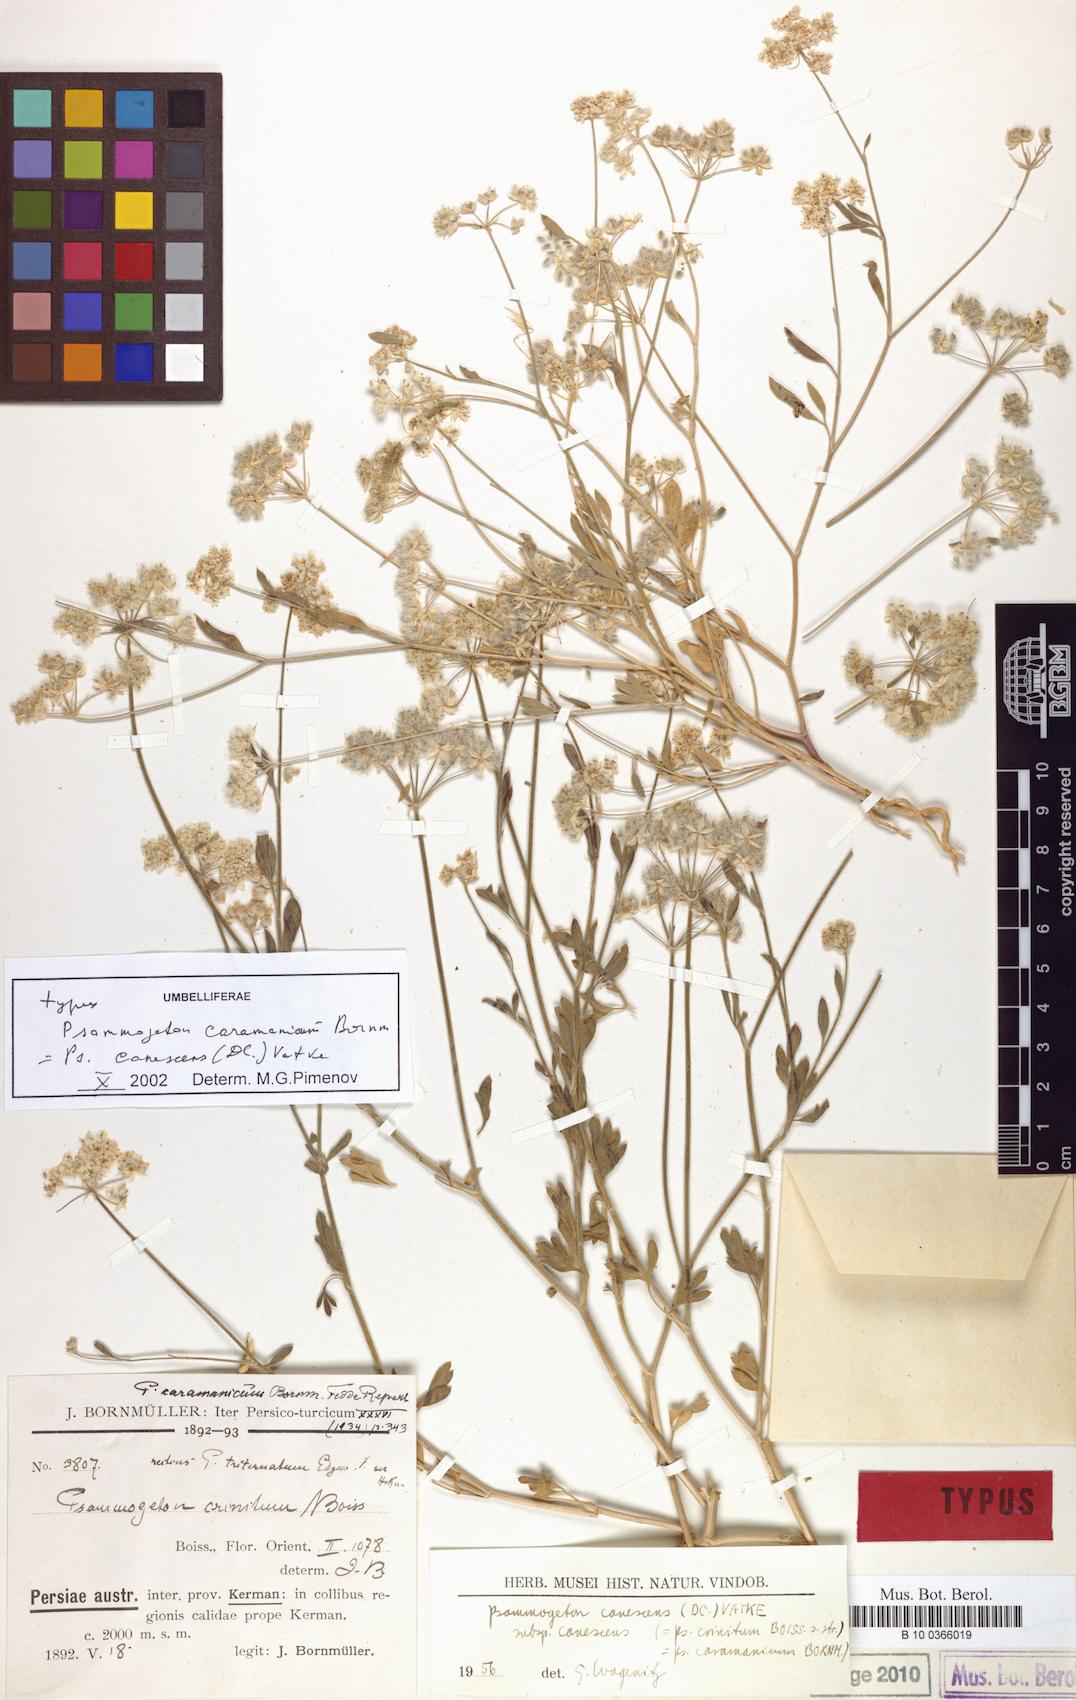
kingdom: Plantae
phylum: Tracheophyta
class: Magnoliopsida
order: Apiales
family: Apiaceae
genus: Psammogeton
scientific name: Psammogeton canescens
